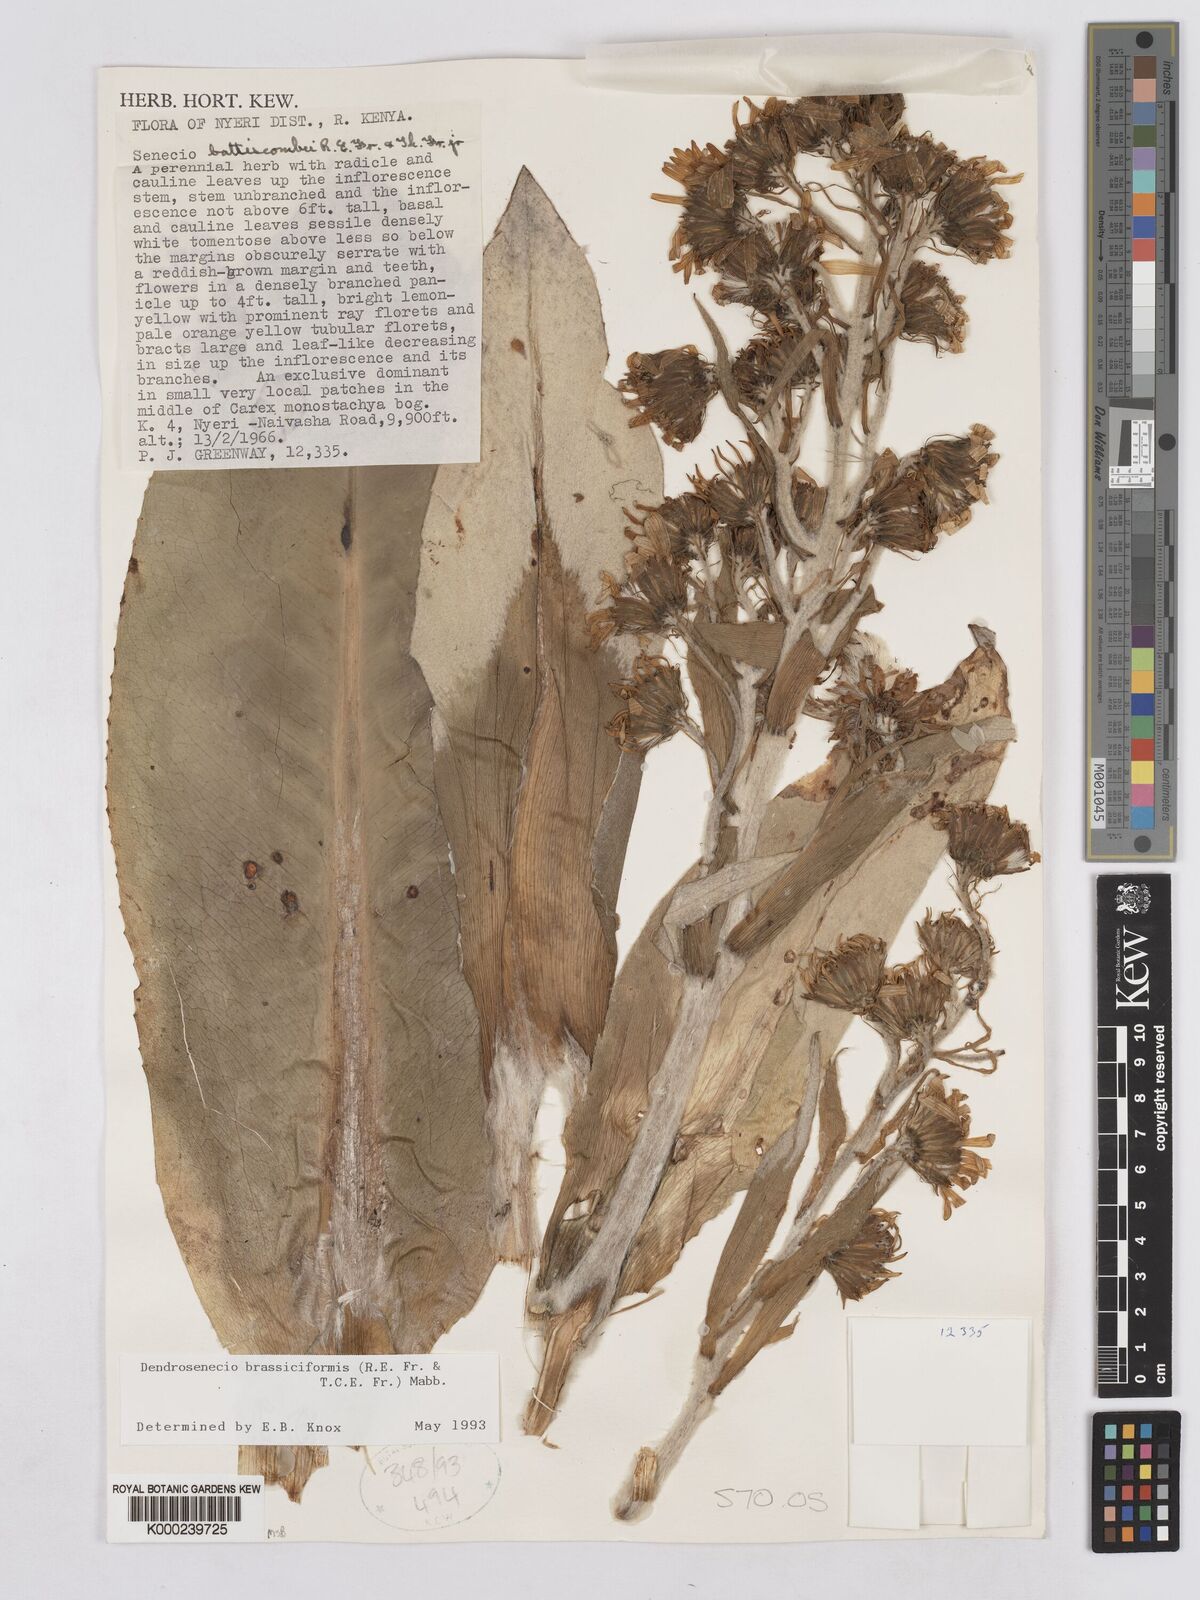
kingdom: Plantae
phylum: Tracheophyta
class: Magnoliopsida
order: Asterales
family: Asteraceae
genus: Dendrosenecio
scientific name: Dendrosenecio brassiciformis
